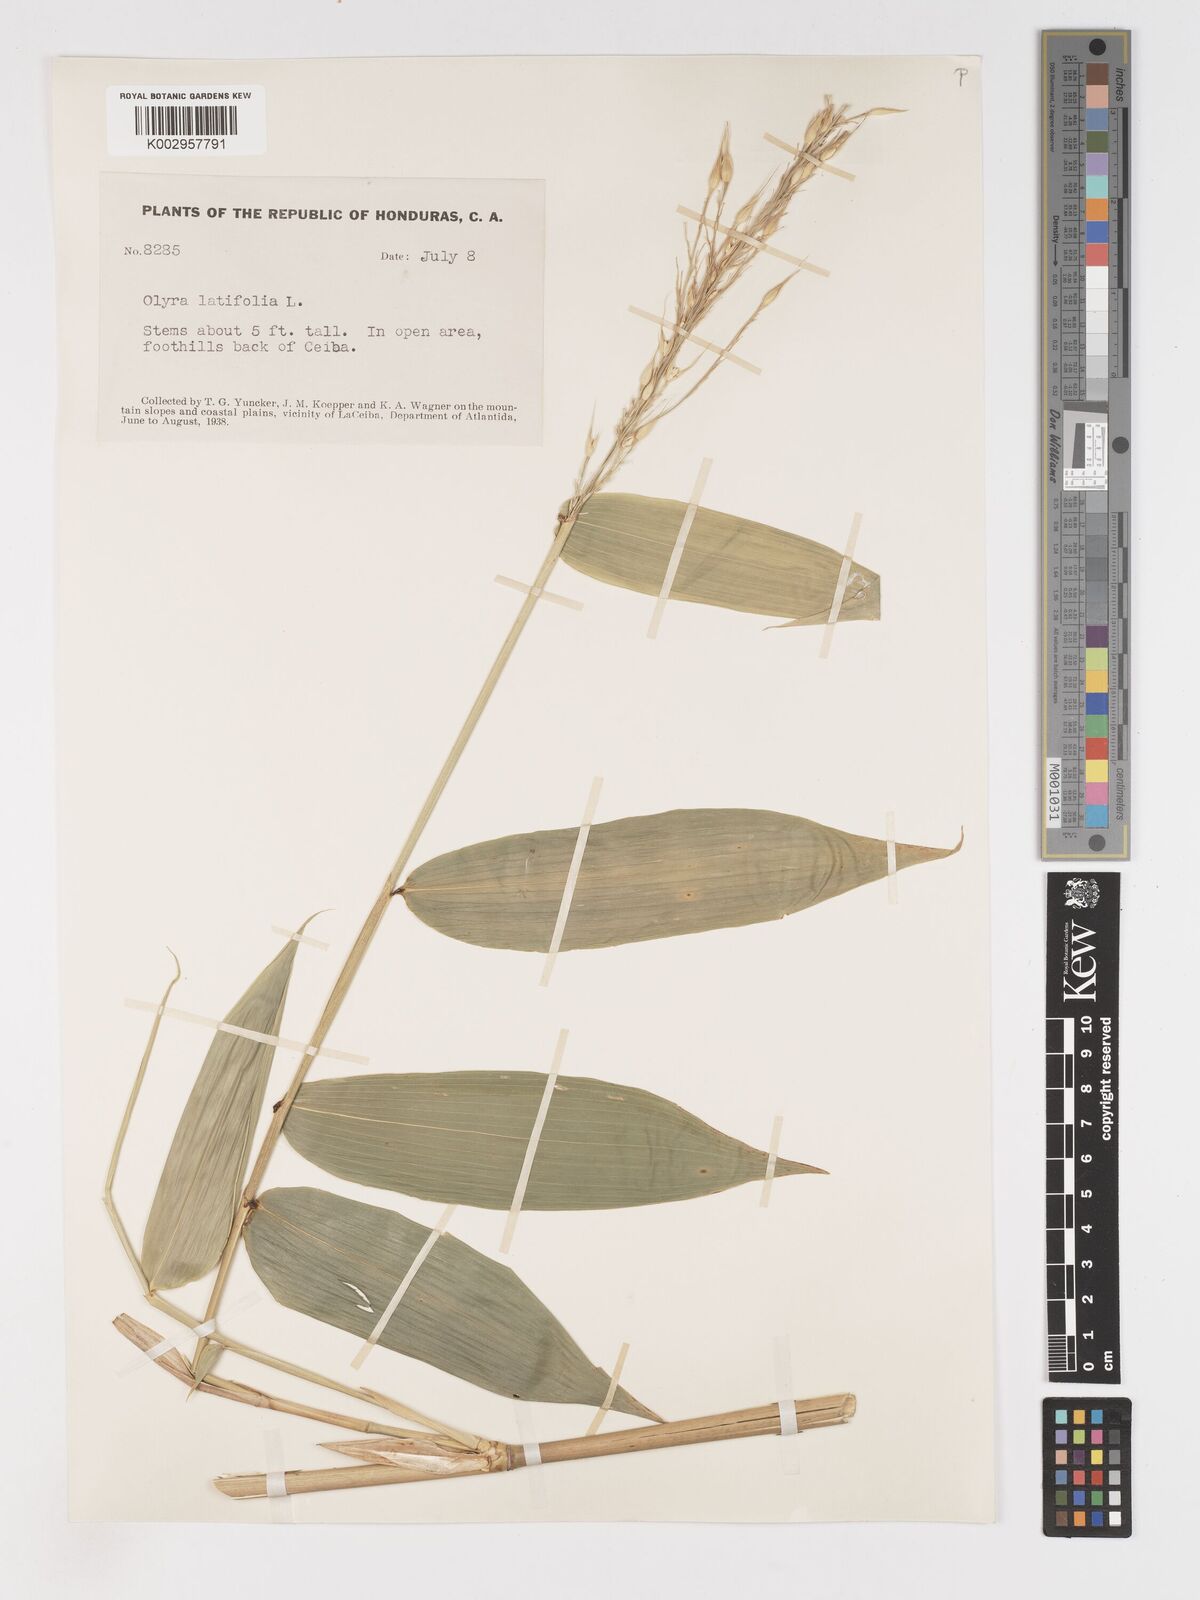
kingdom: Plantae
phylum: Tracheophyta
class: Liliopsida
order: Poales
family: Poaceae
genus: Olyra
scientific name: Olyra latifolia
